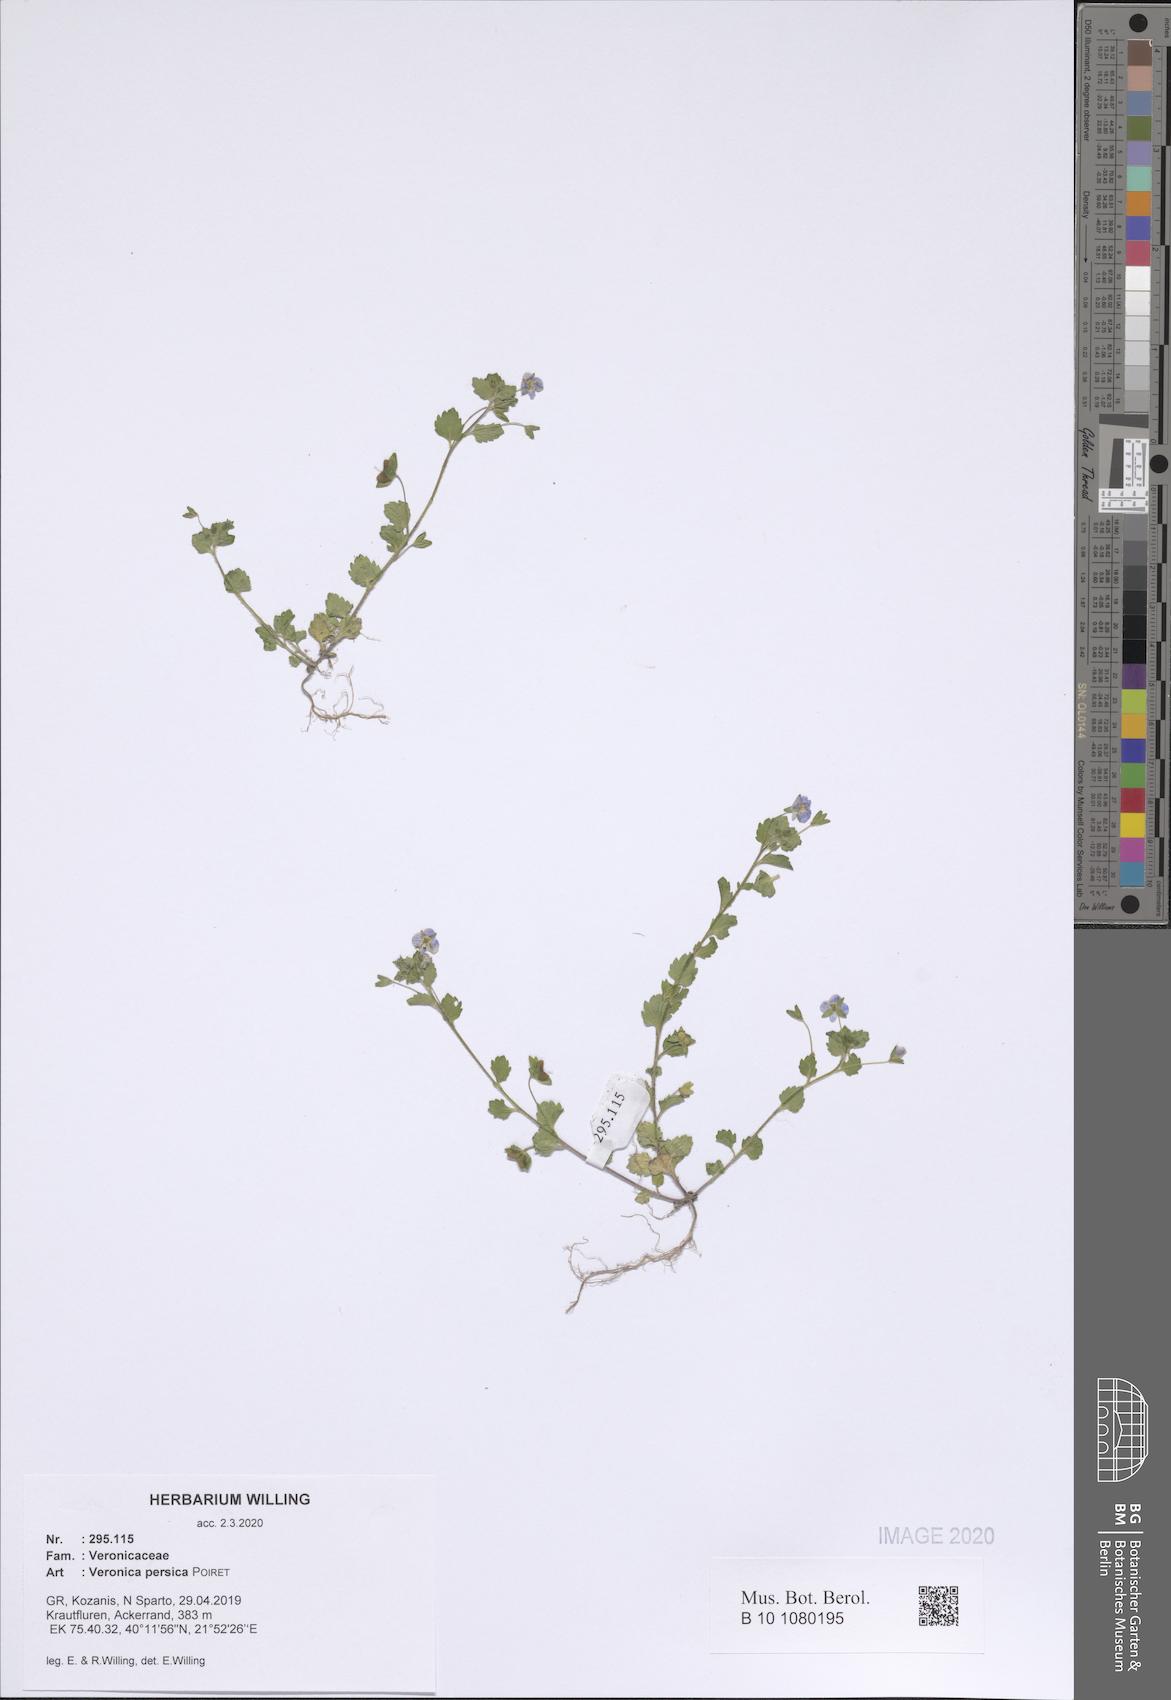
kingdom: Plantae
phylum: Tracheophyta
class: Magnoliopsida
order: Lamiales
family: Plantaginaceae
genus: Veronica
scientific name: Veronica persica
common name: Common field-speedwell
